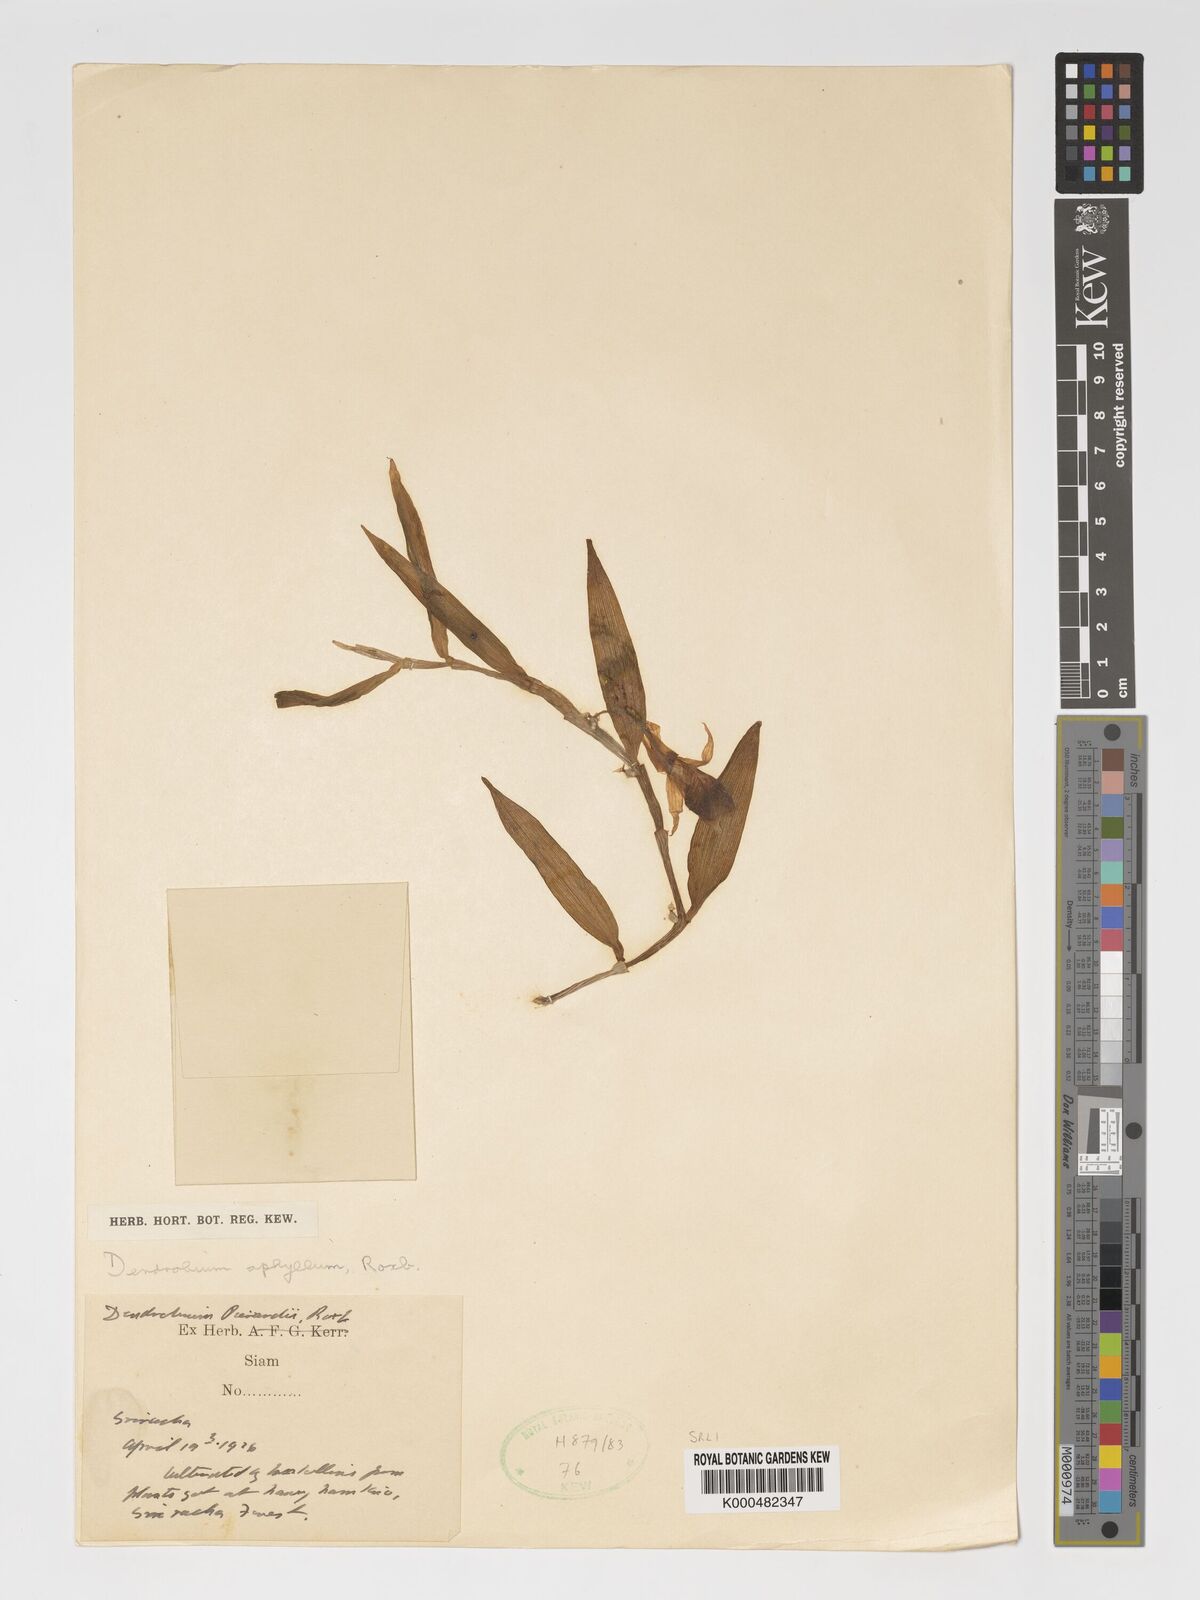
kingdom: Plantae
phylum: Tracheophyta
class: Liliopsida
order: Asparagales
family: Orchidaceae
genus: Dendrobium
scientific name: Dendrobium macrostachyum
